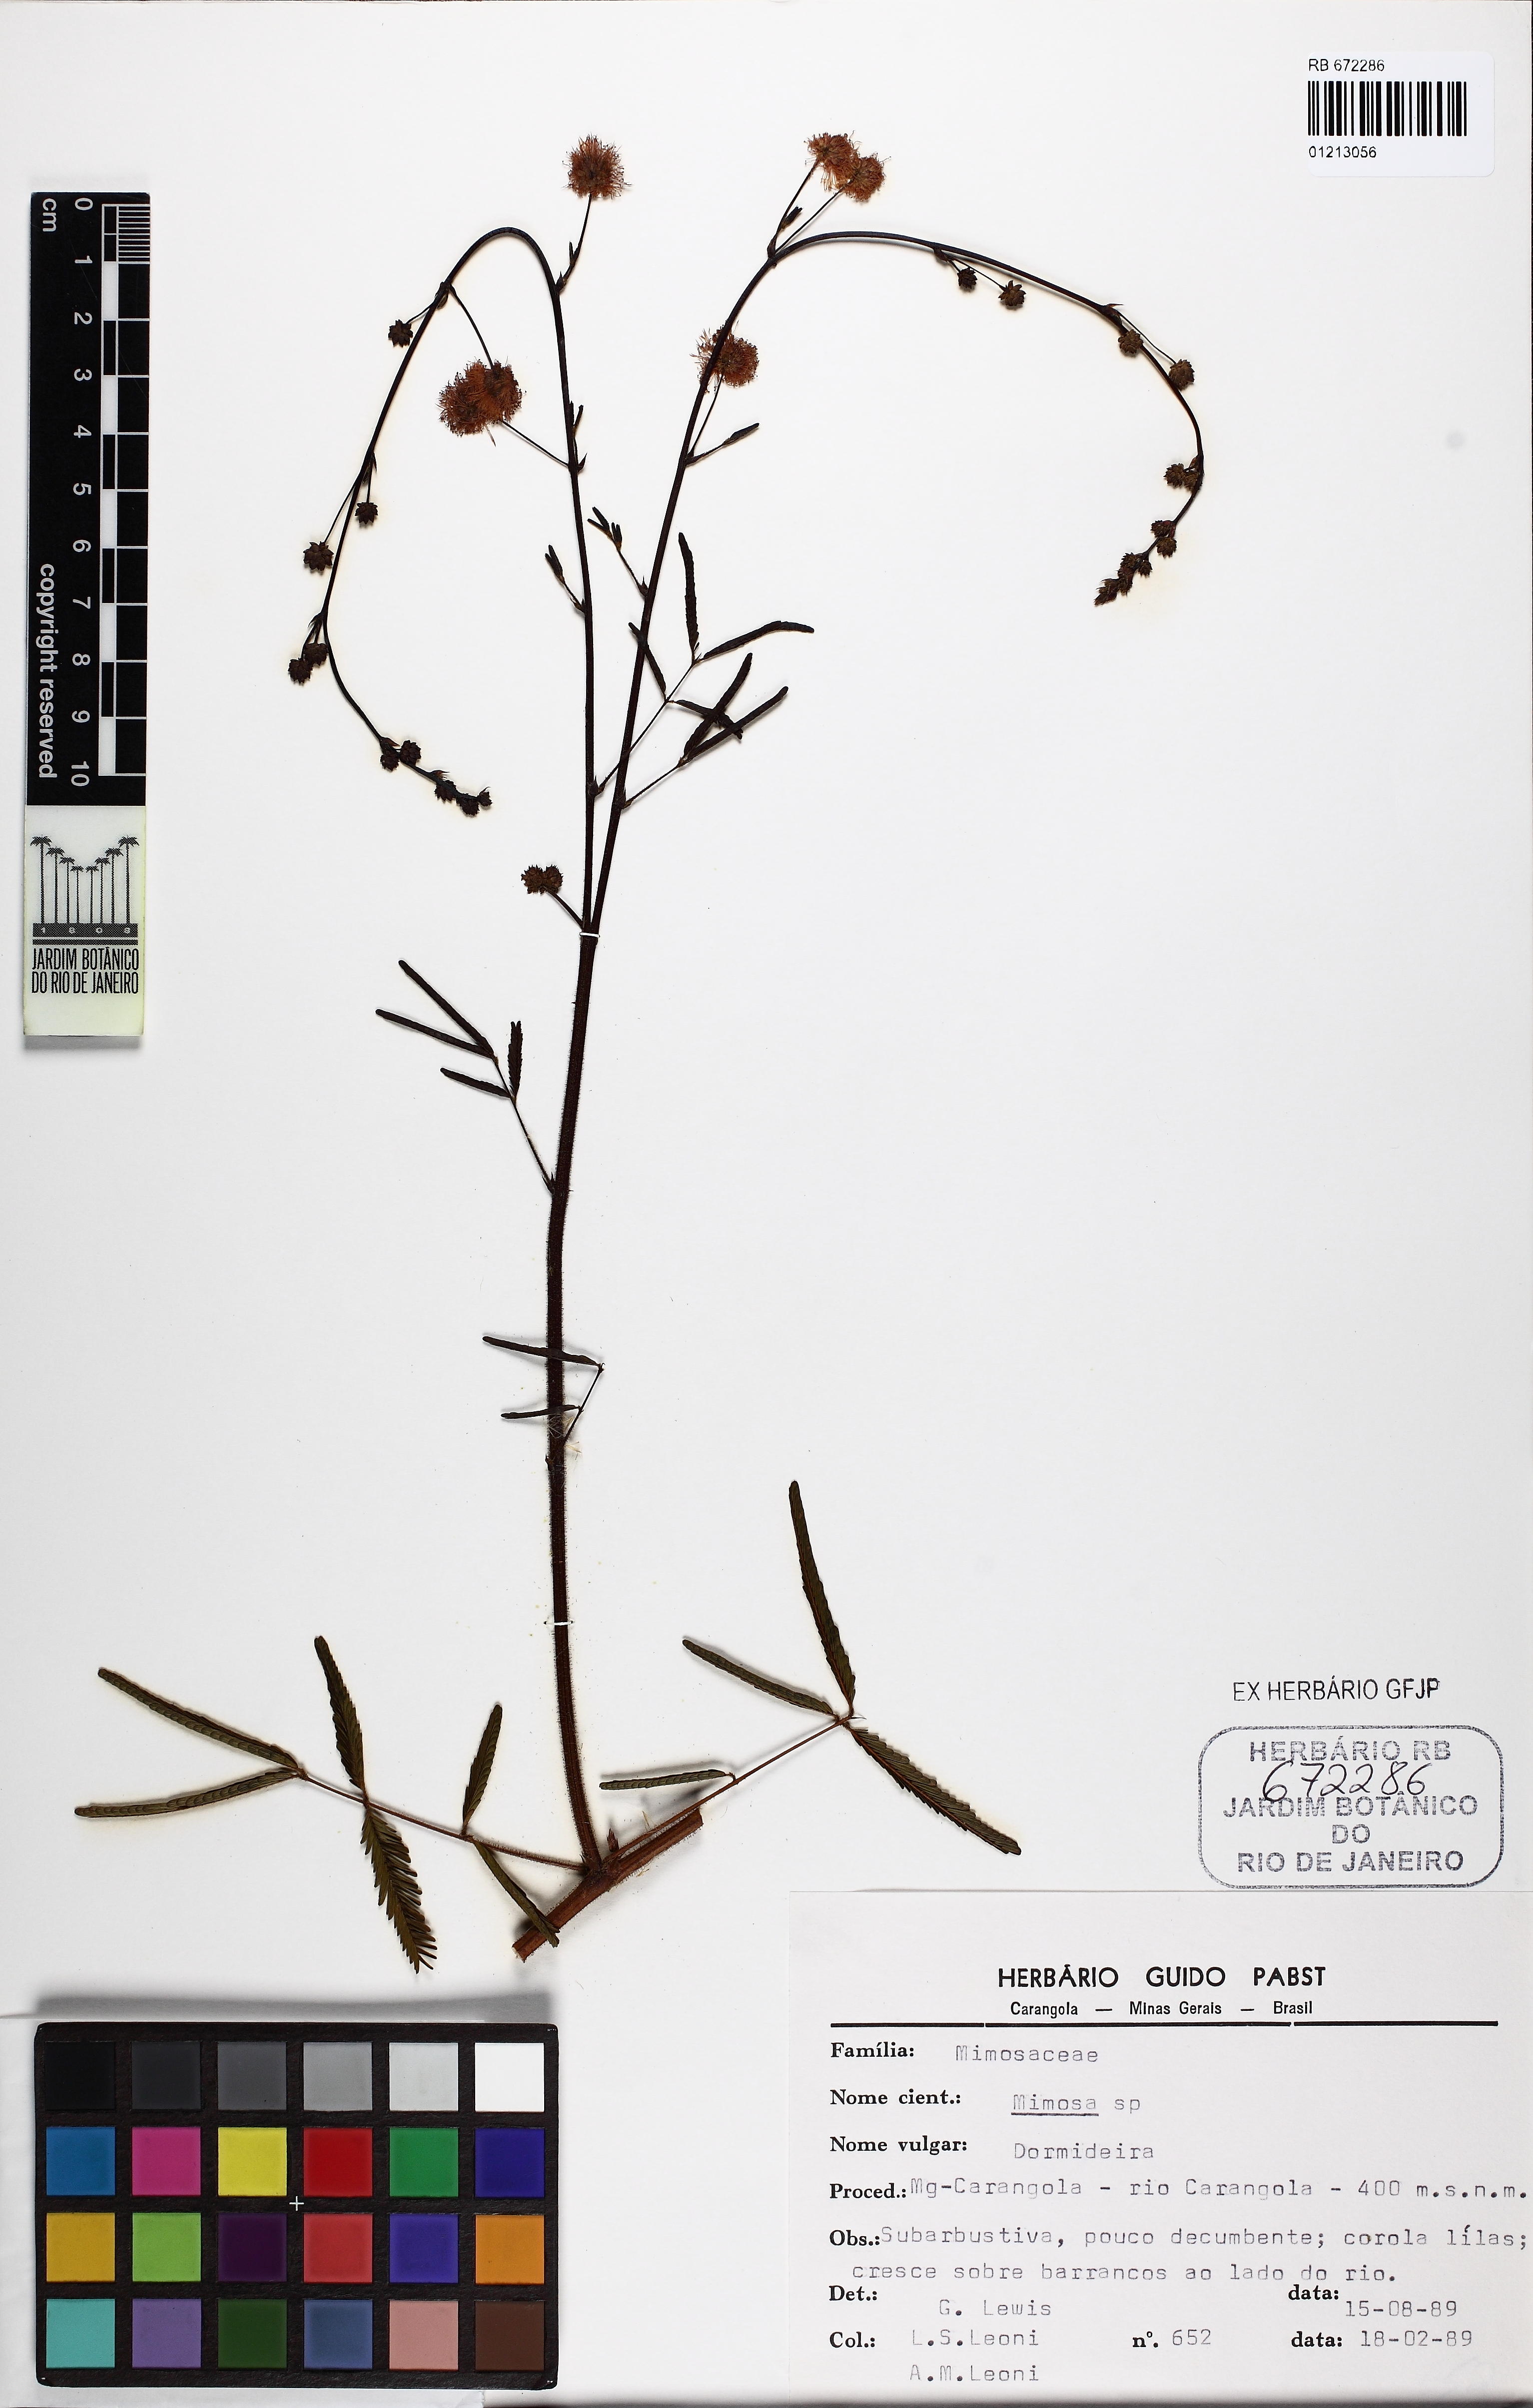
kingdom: Plantae
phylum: Tracheophyta
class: Magnoliopsida
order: Fabales
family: Fabaceae
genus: Mimosa
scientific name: Mimosa somnians
